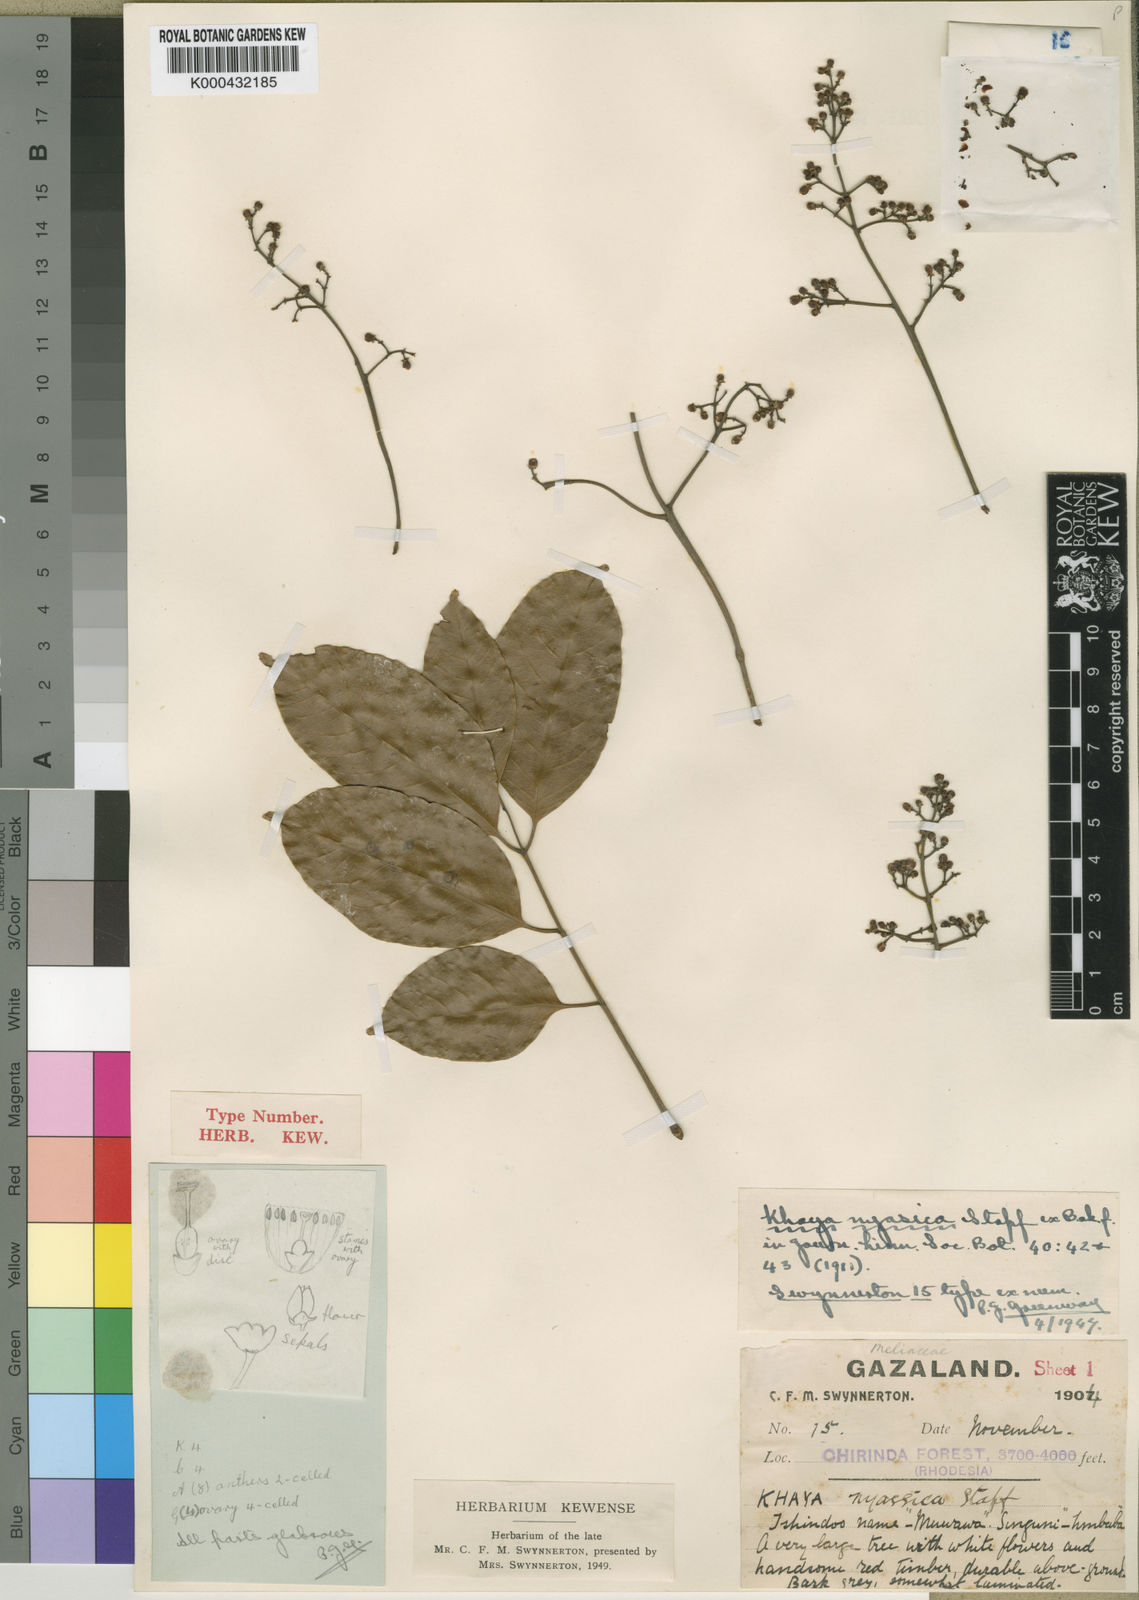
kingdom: Plantae
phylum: Tracheophyta
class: Magnoliopsida
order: Sapindales
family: Meliaceae
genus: Khaya
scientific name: Khaya nyasica
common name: Nyasaland mahogany
